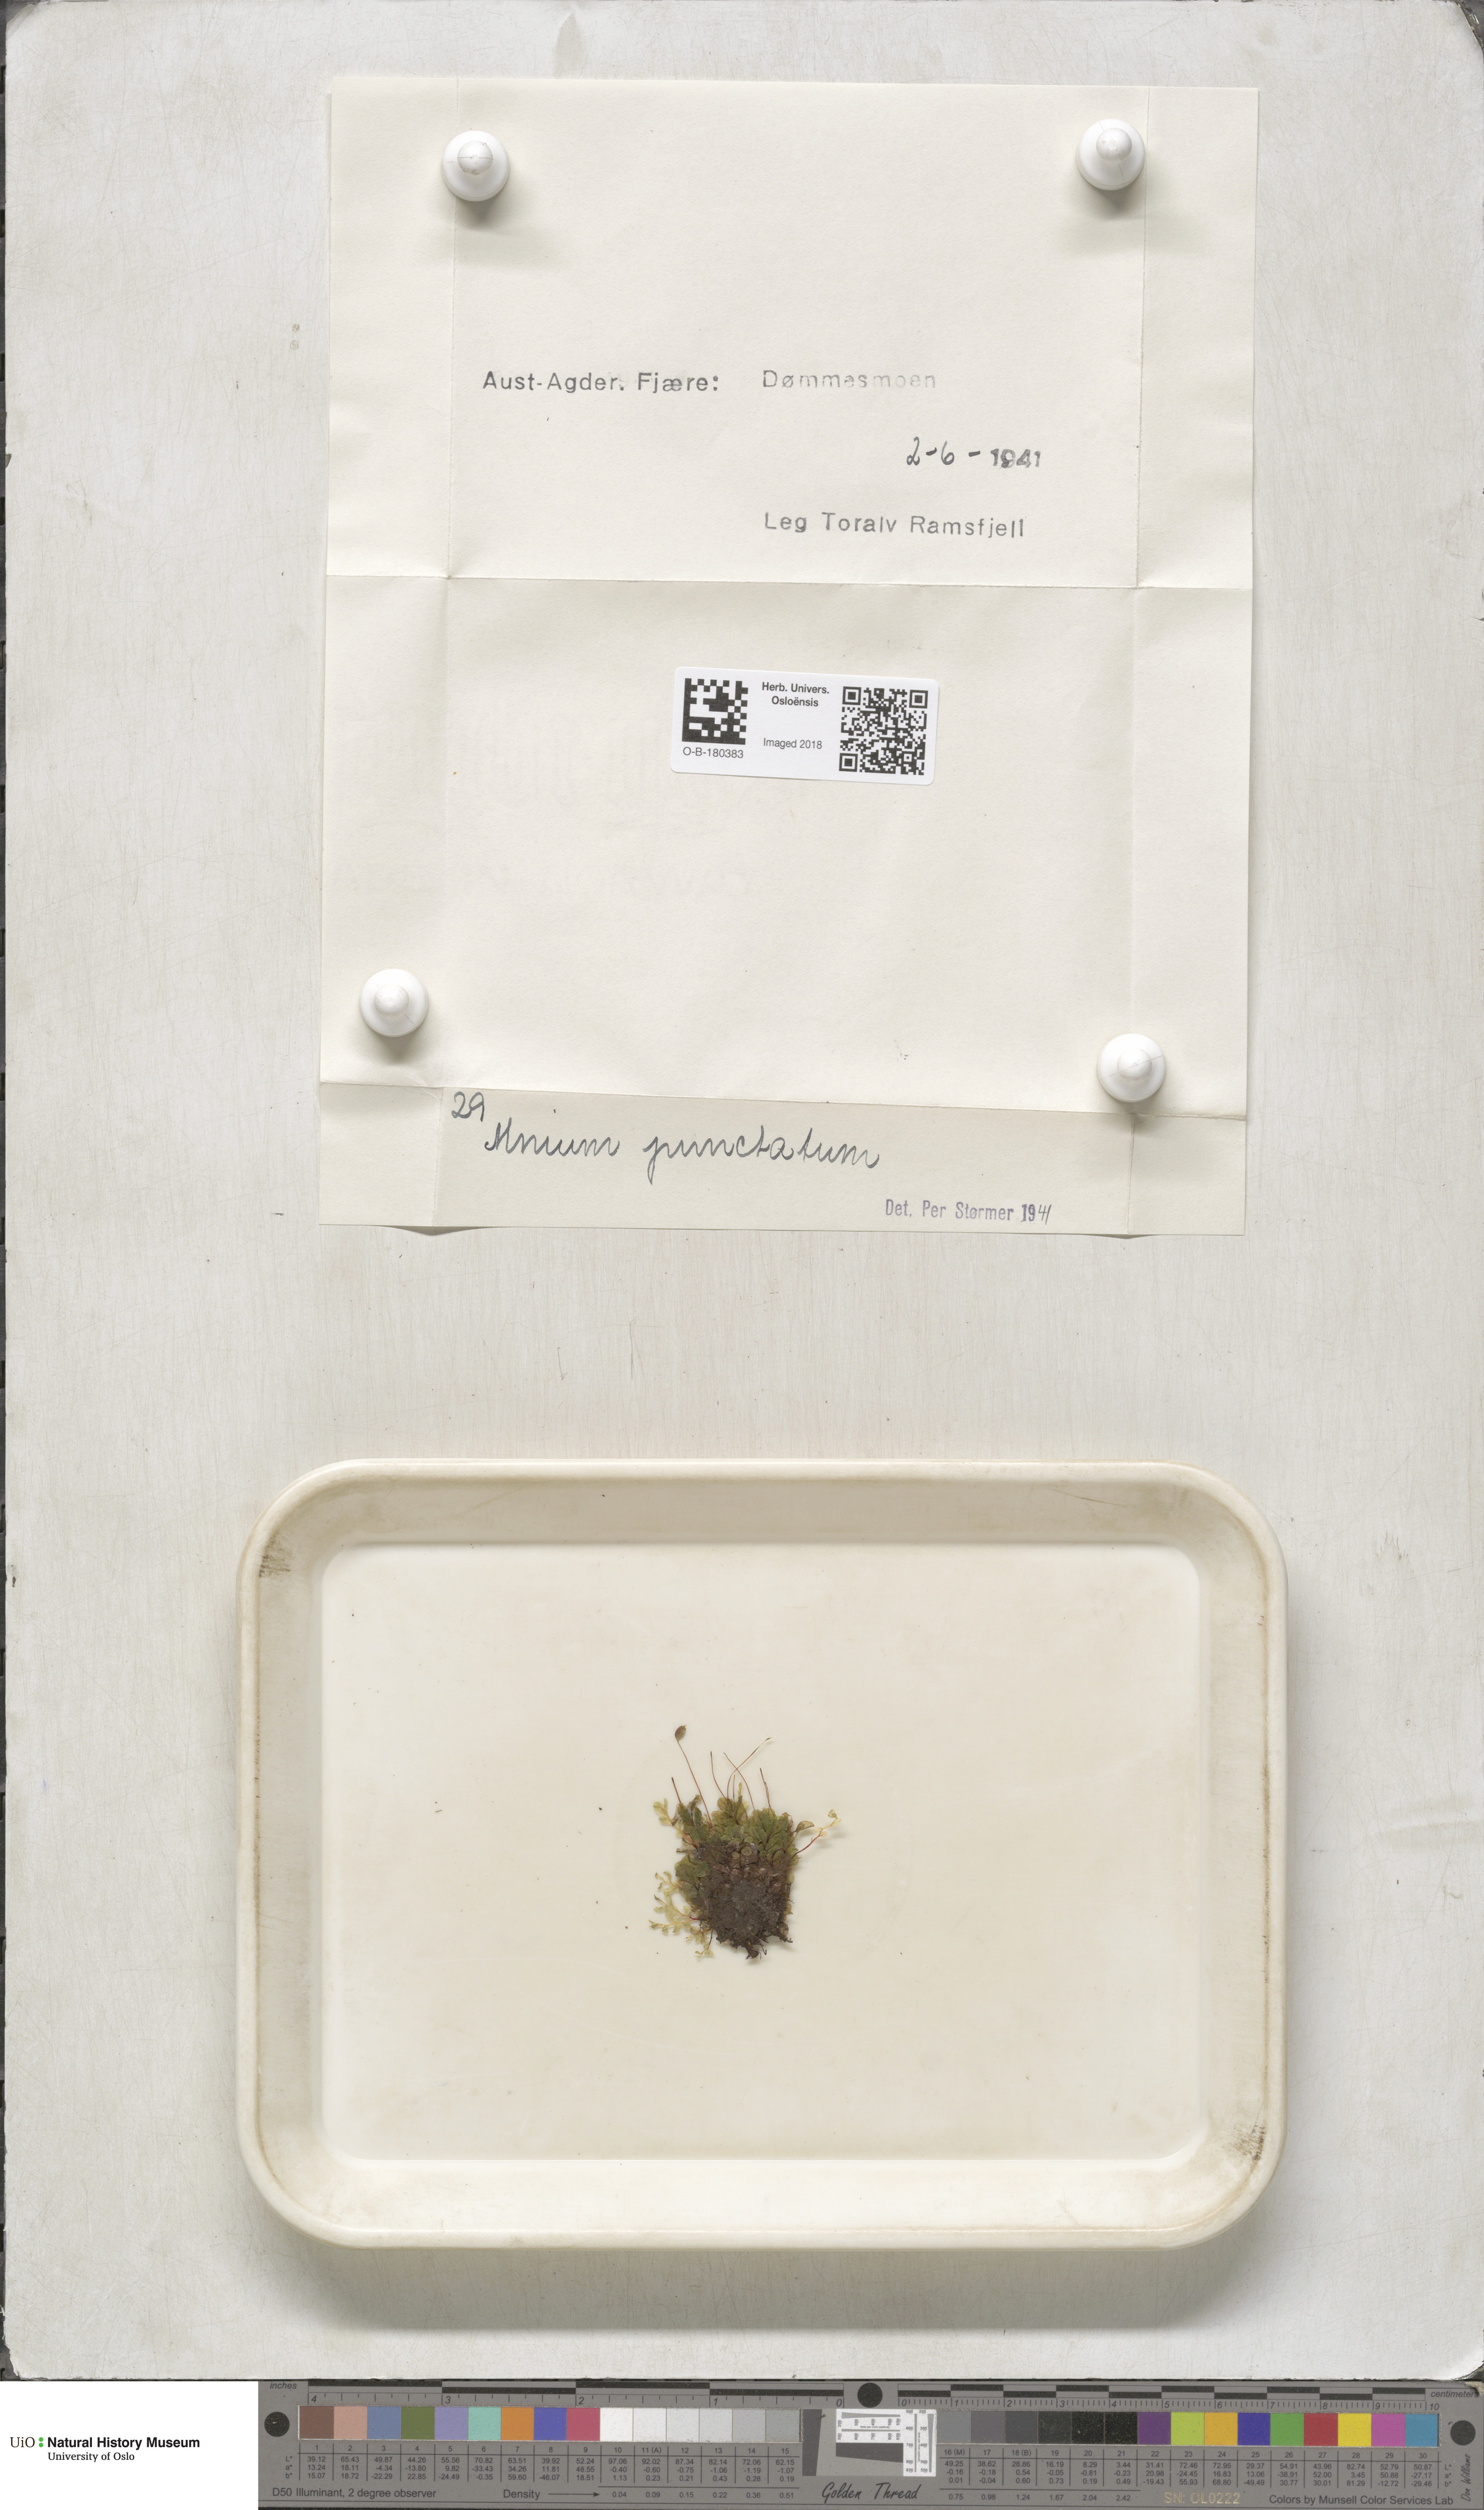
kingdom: Plantae
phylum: Bryophyta
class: Bryopsida
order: Bryales
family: Mniaceae
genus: Rhizomnium
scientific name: Rhizomnium punctatum
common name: Dotted leafy moss
